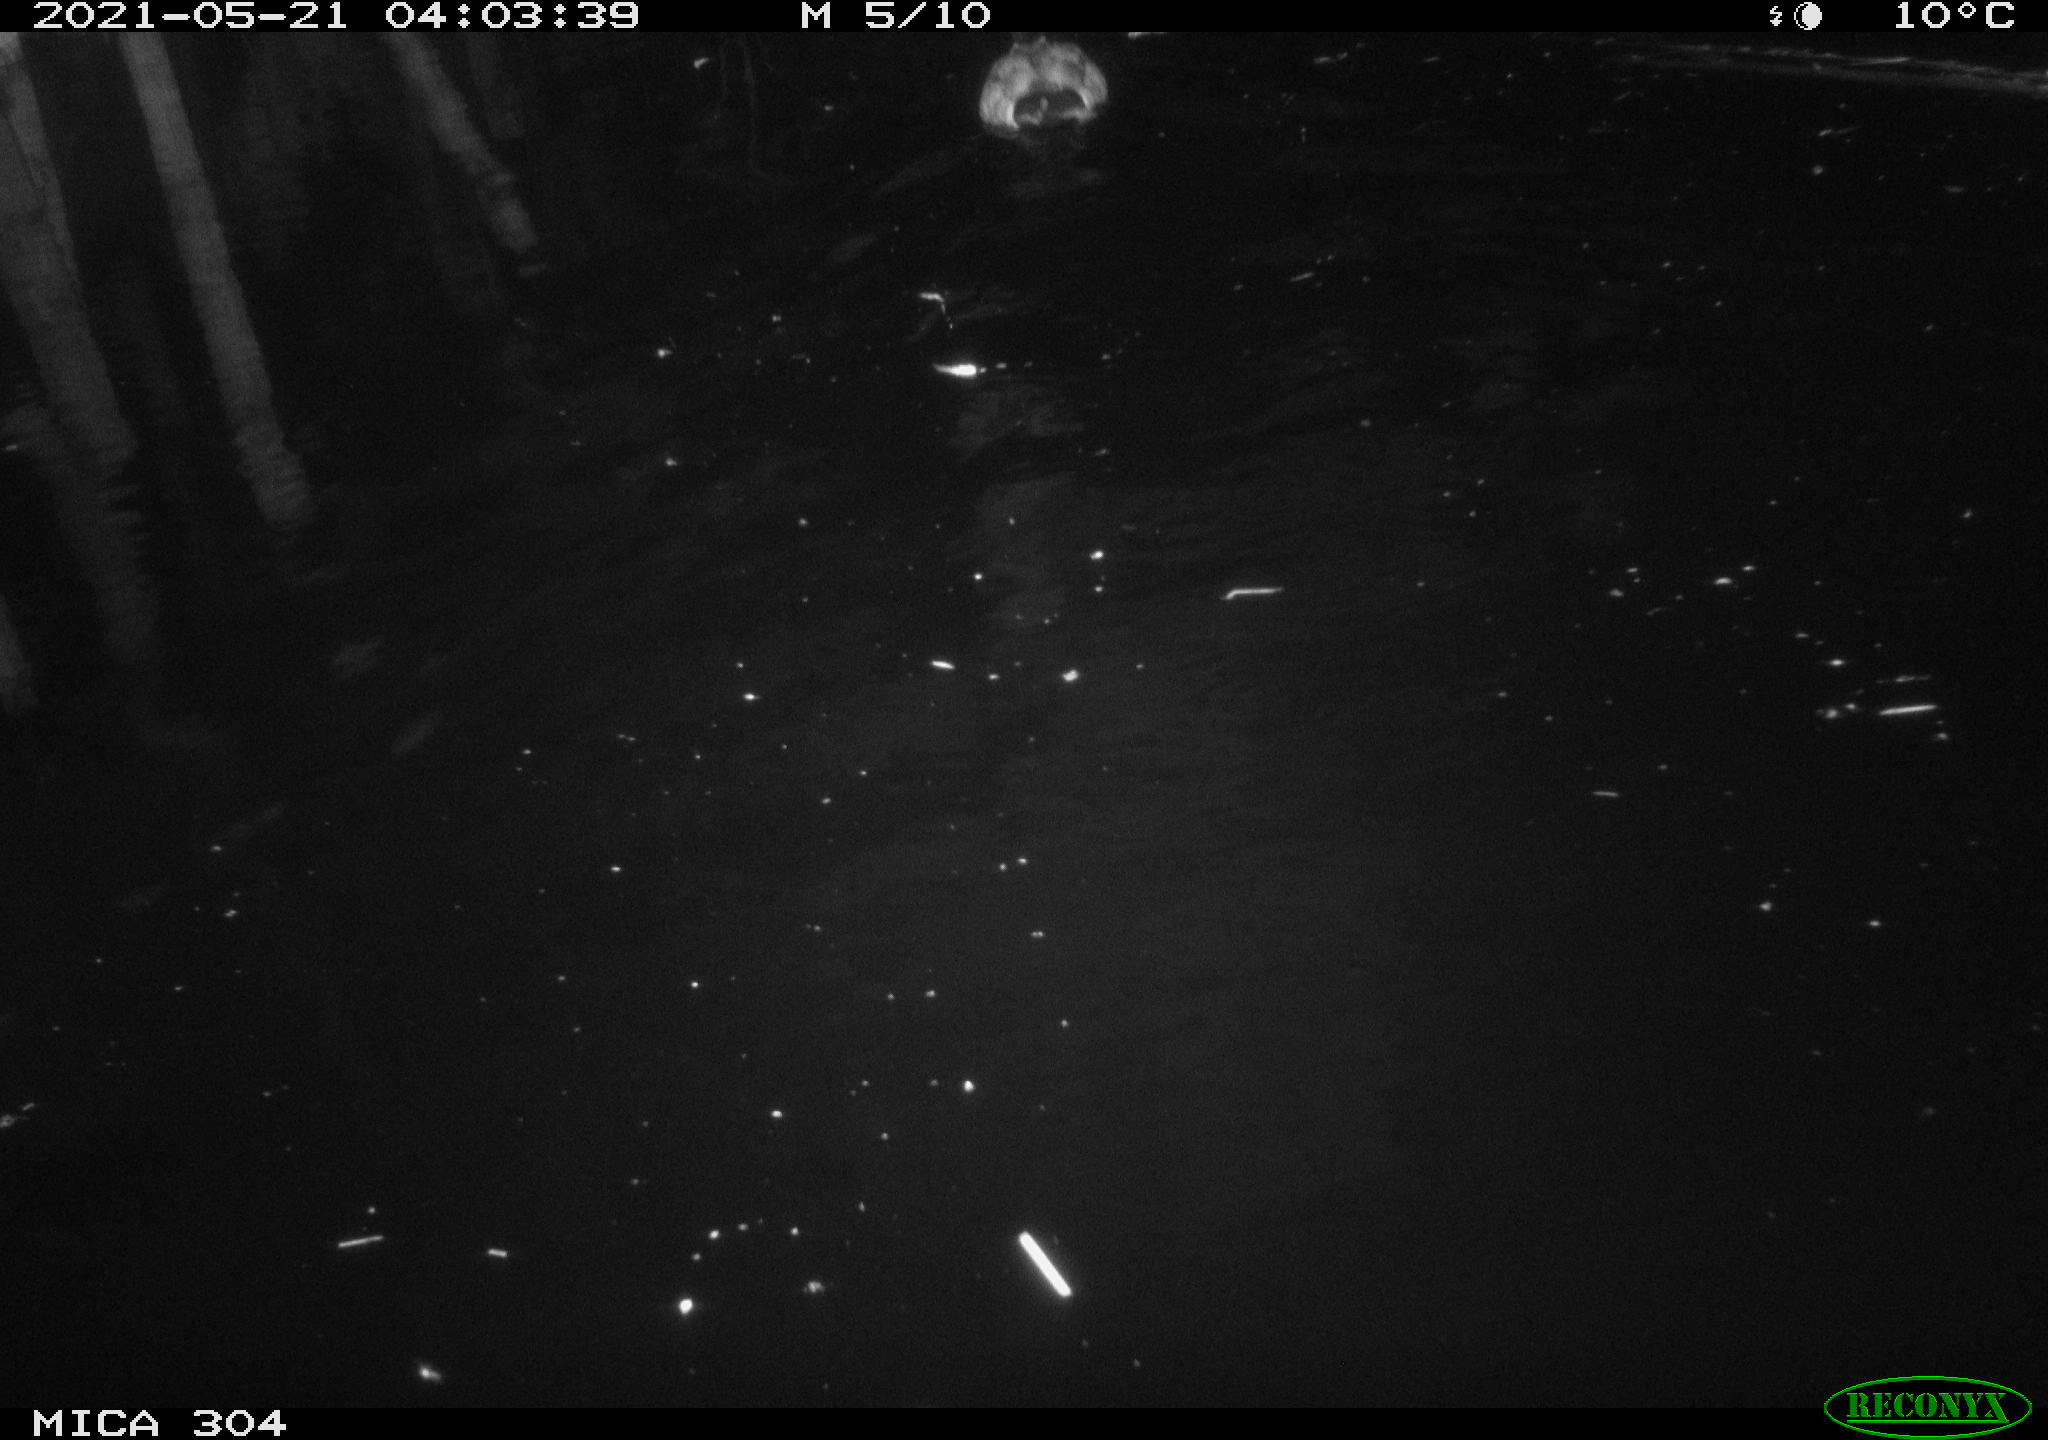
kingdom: Animalia
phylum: Chordata
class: Aves
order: Anseriformes
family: Anatidae
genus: Mareca
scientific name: Mareca strepera
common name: Gadwall
